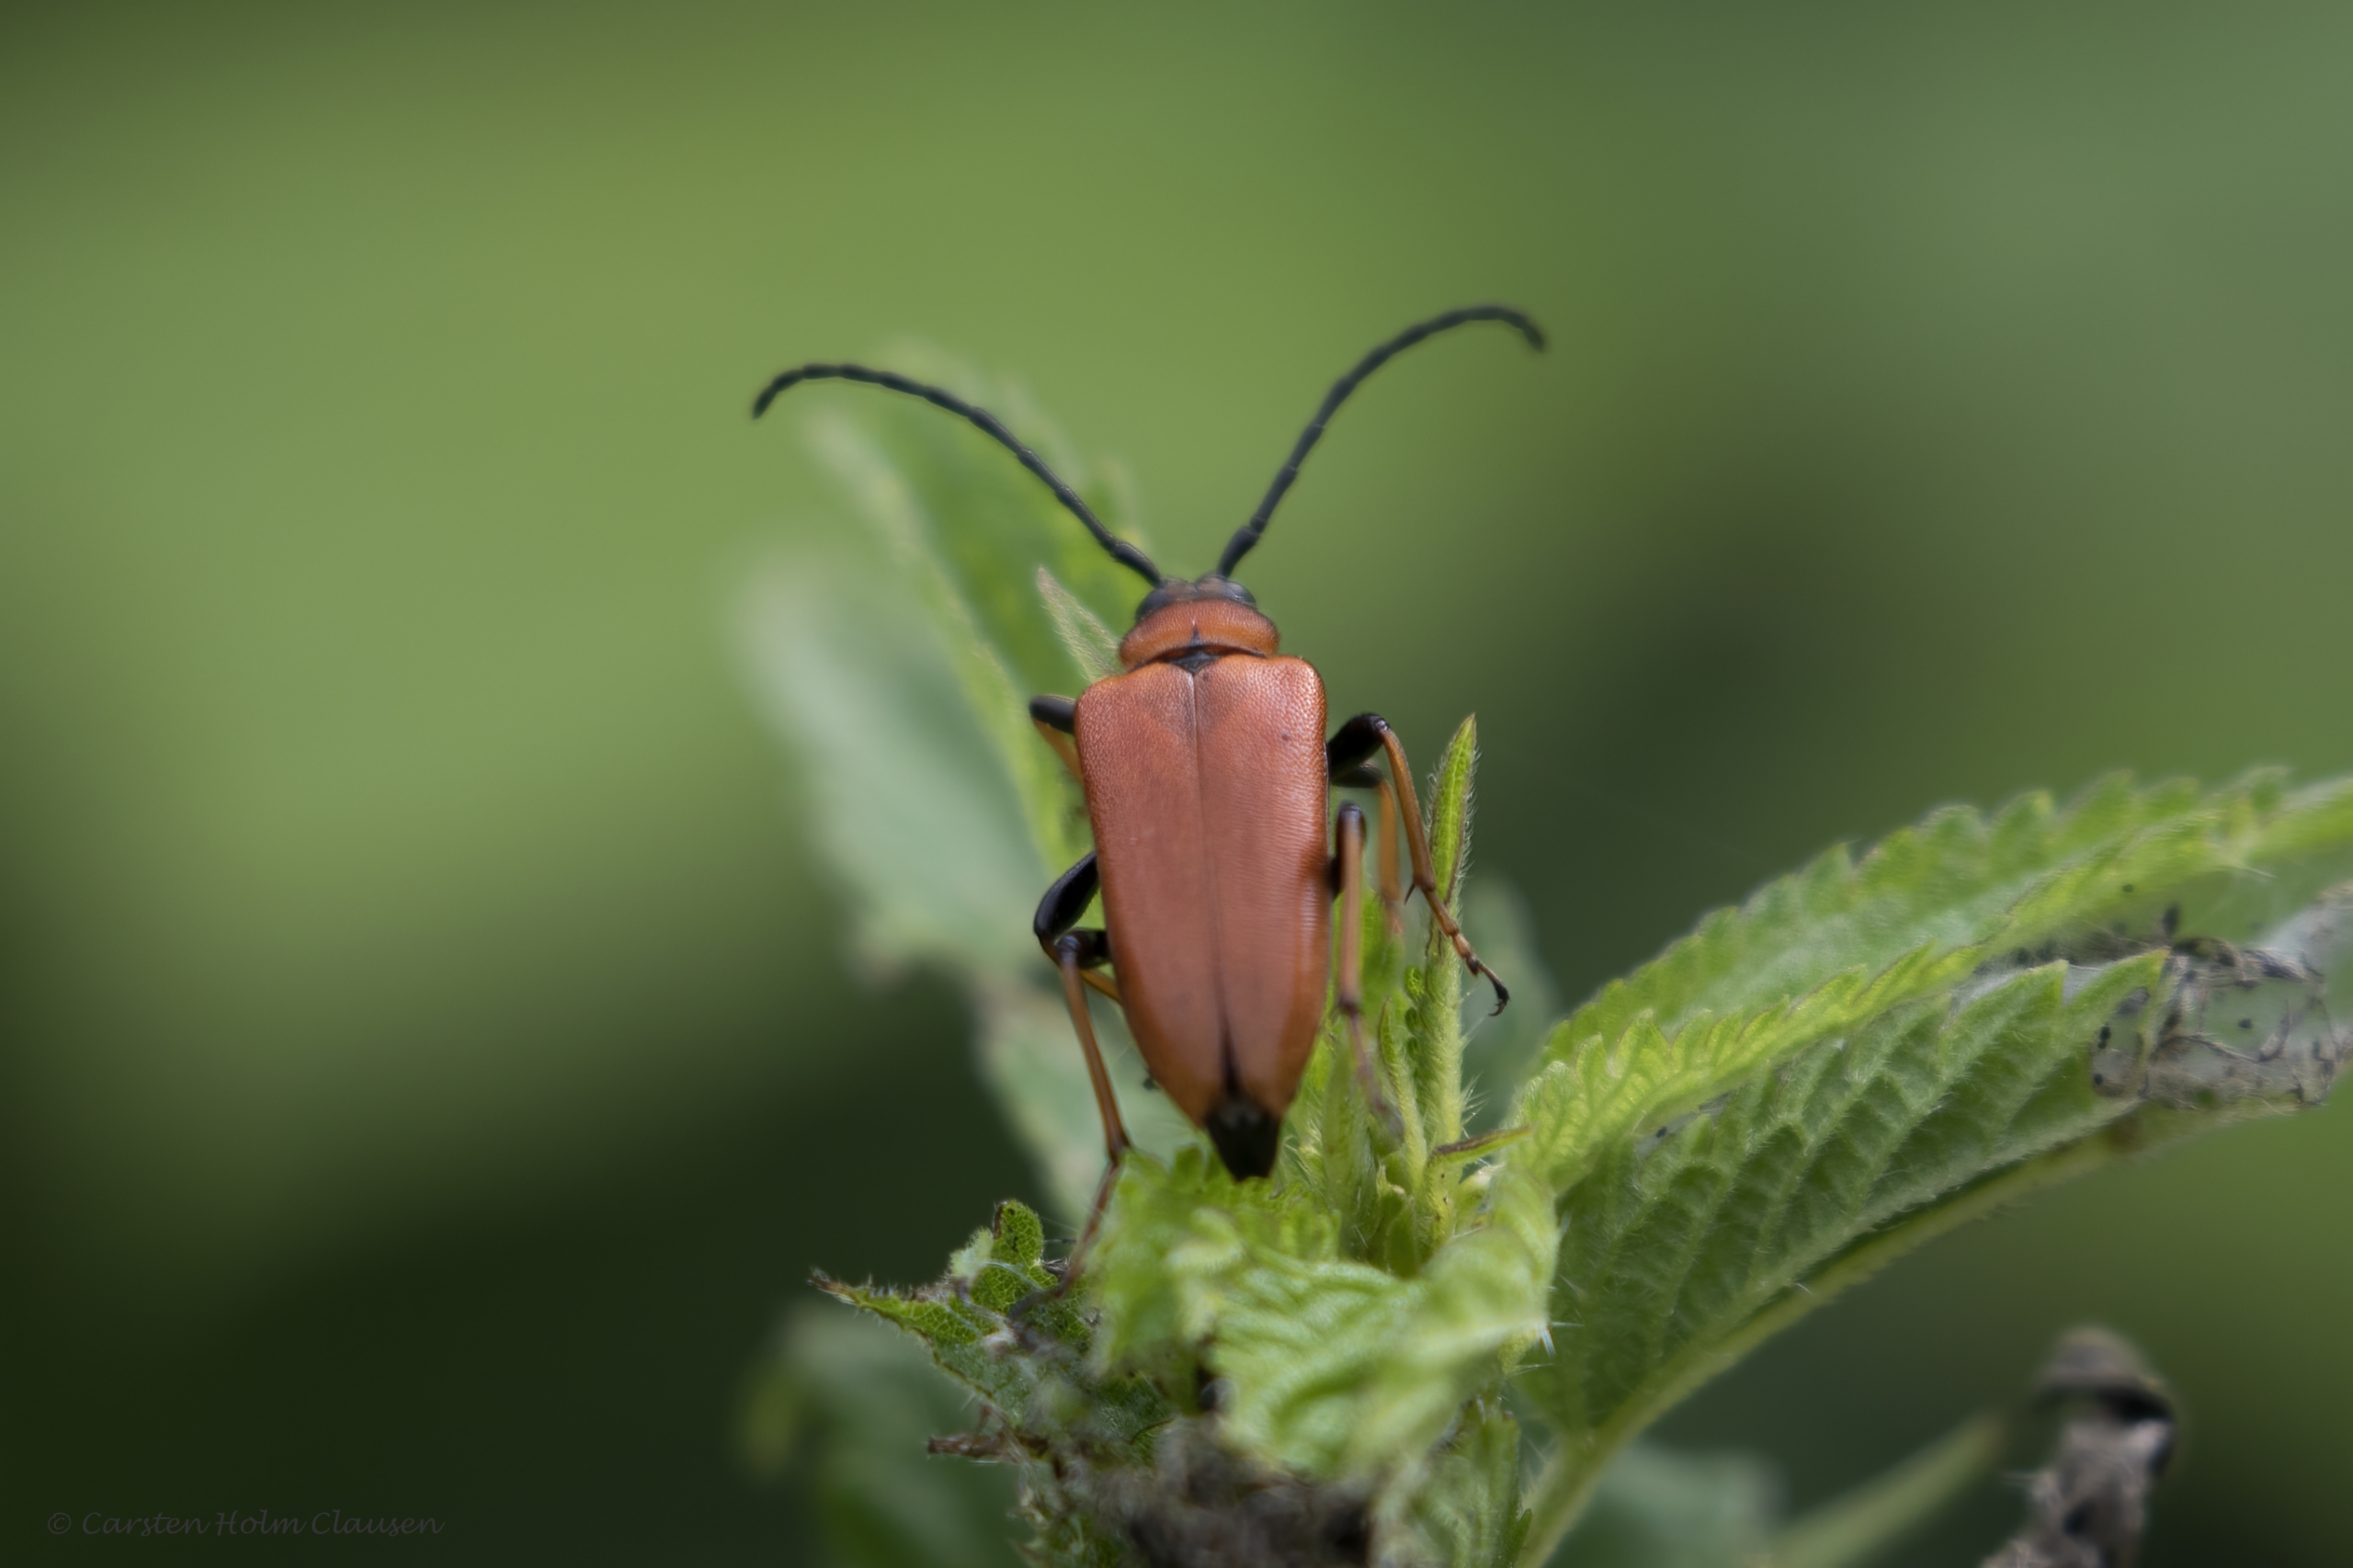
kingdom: Animalia
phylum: Arthropoda
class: Insecta
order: Coleoptera
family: Cerambycidae
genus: Stictoleptura
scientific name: Stictoleptura rubra
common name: Rød blomsterbuk
